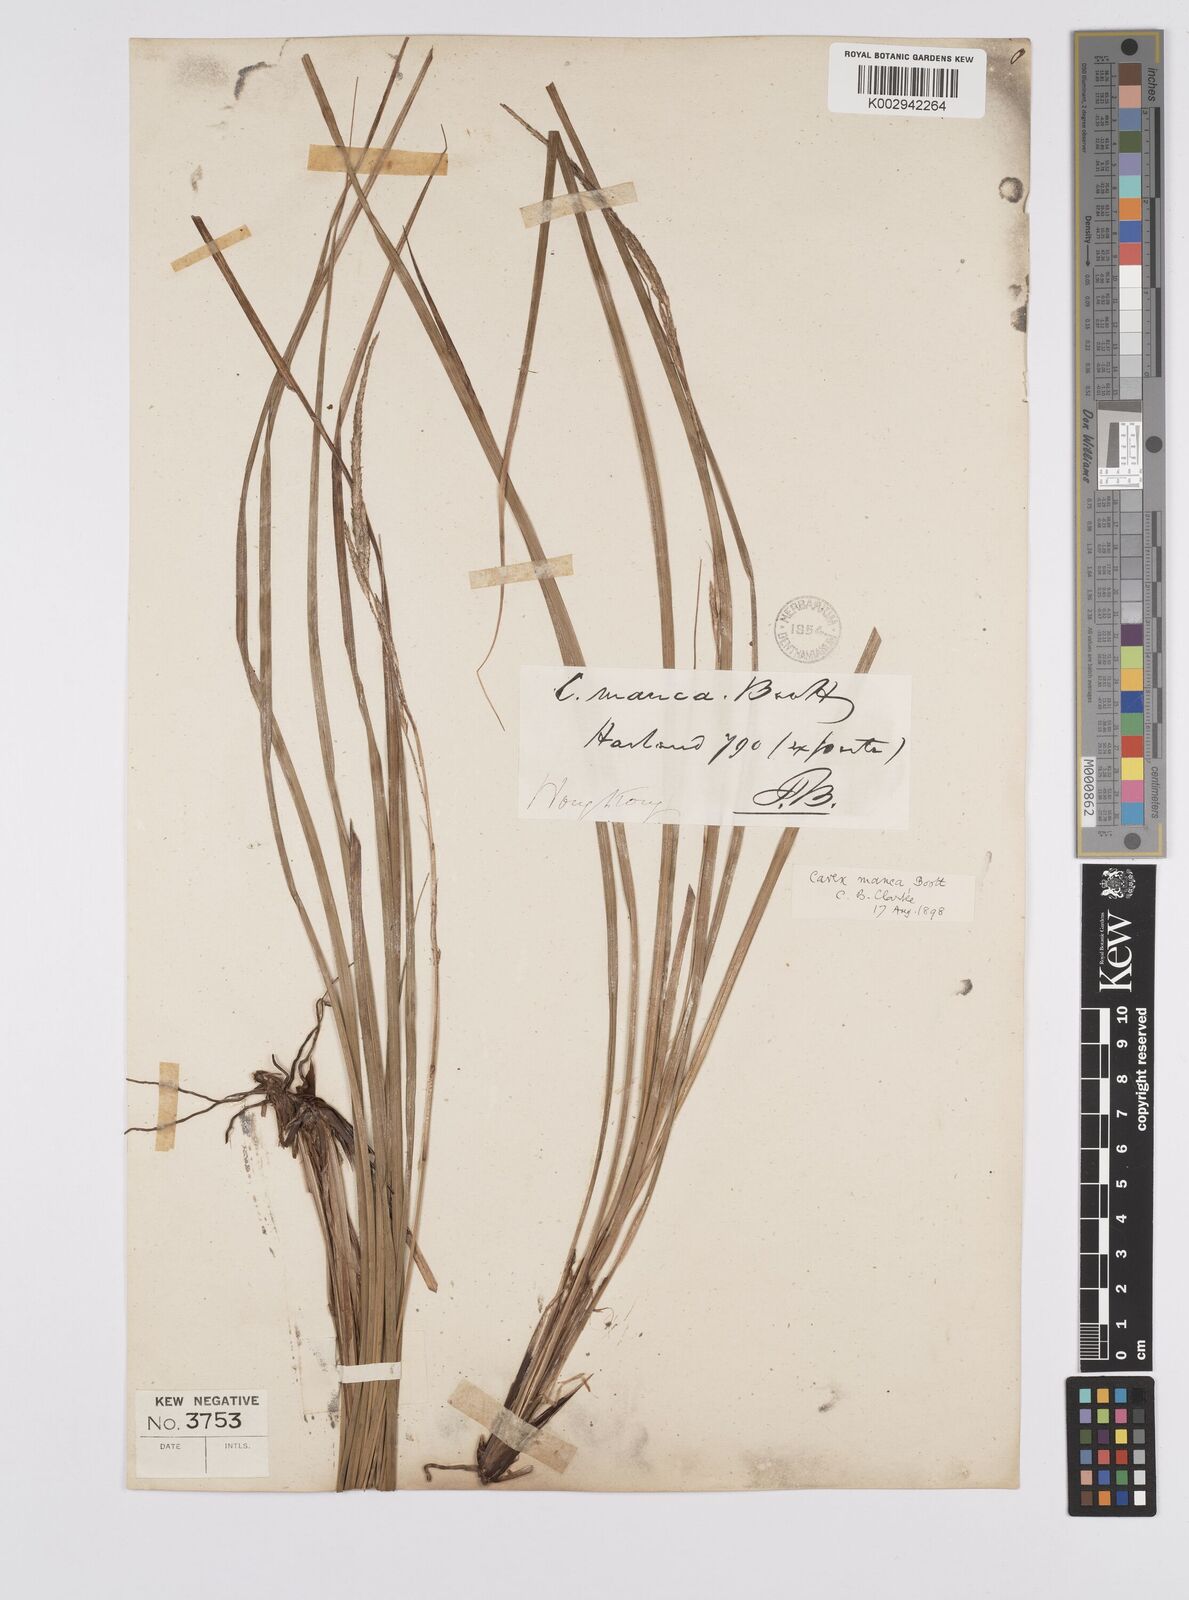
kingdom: Plantae
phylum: Tracheophyta
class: Liliopsida
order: Poales
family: Cyperaceae
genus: Carex
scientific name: Carex manca
